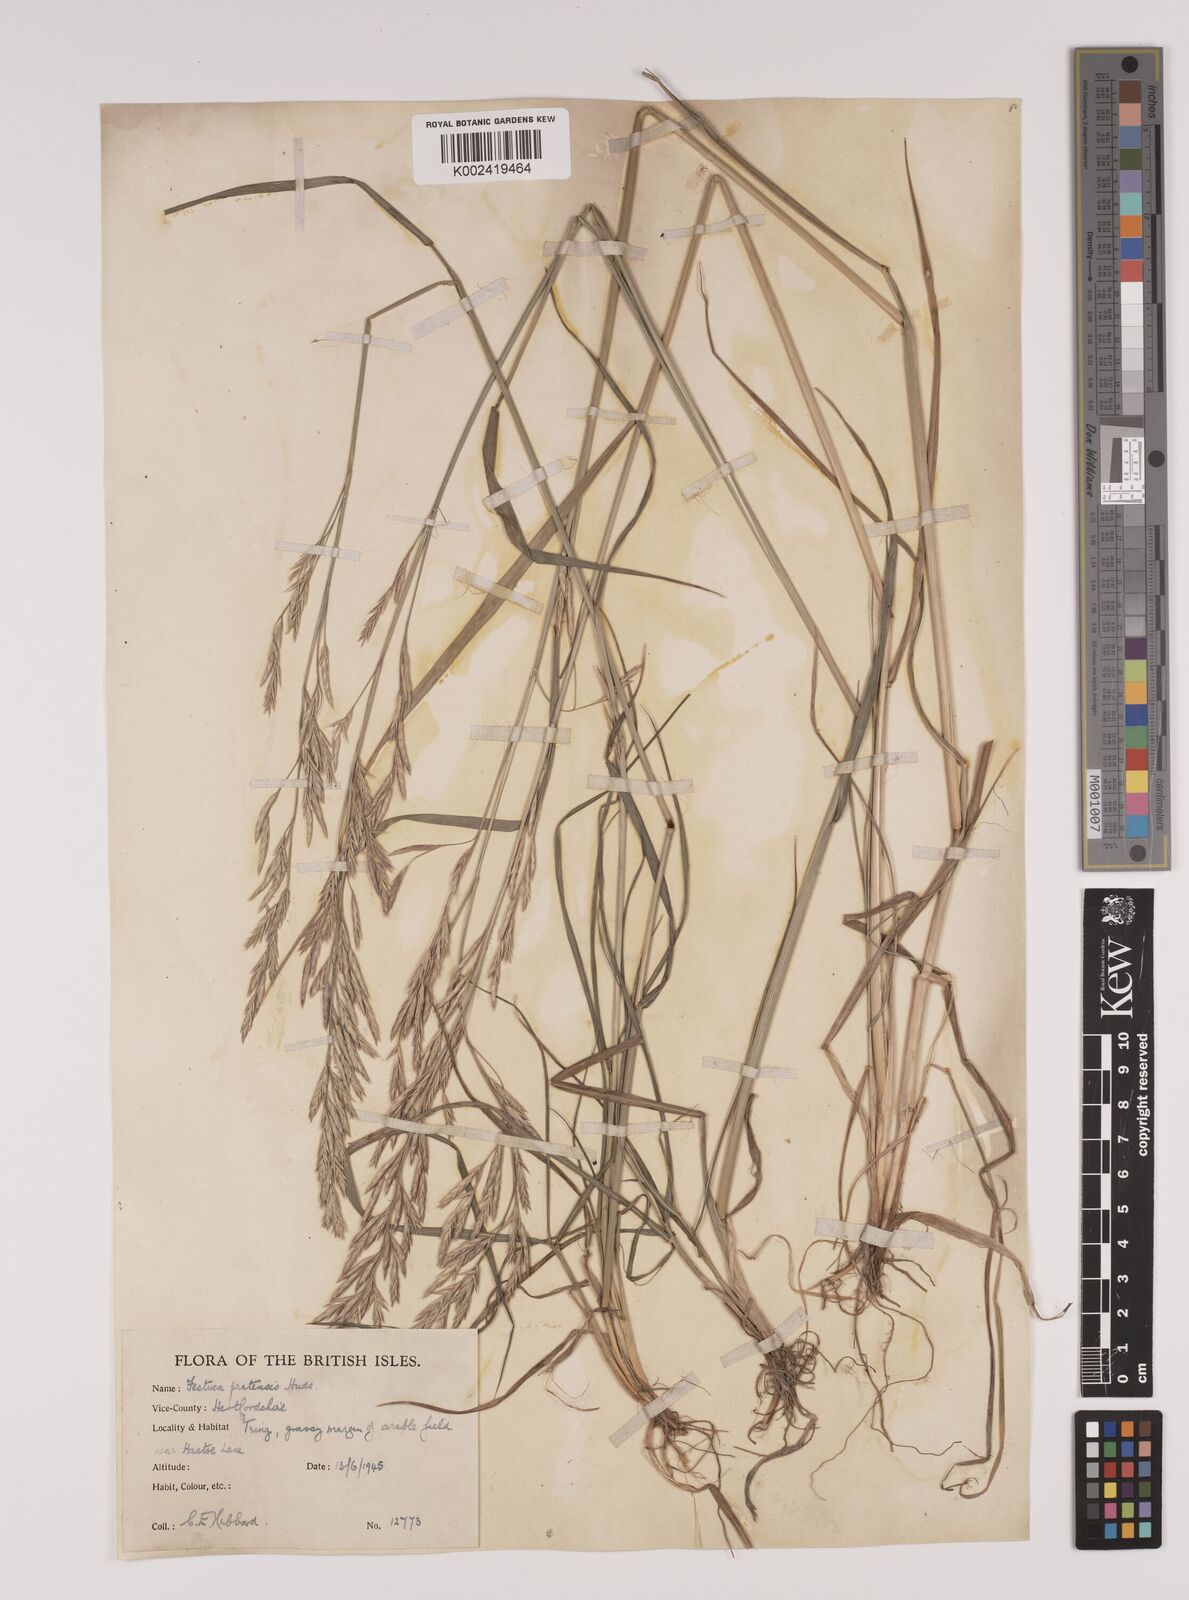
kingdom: Plantae
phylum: Tracheophyta
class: Liliopsida
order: Poales
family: Poaceae
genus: Lolium
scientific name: Lolium pratense
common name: Dover grass
